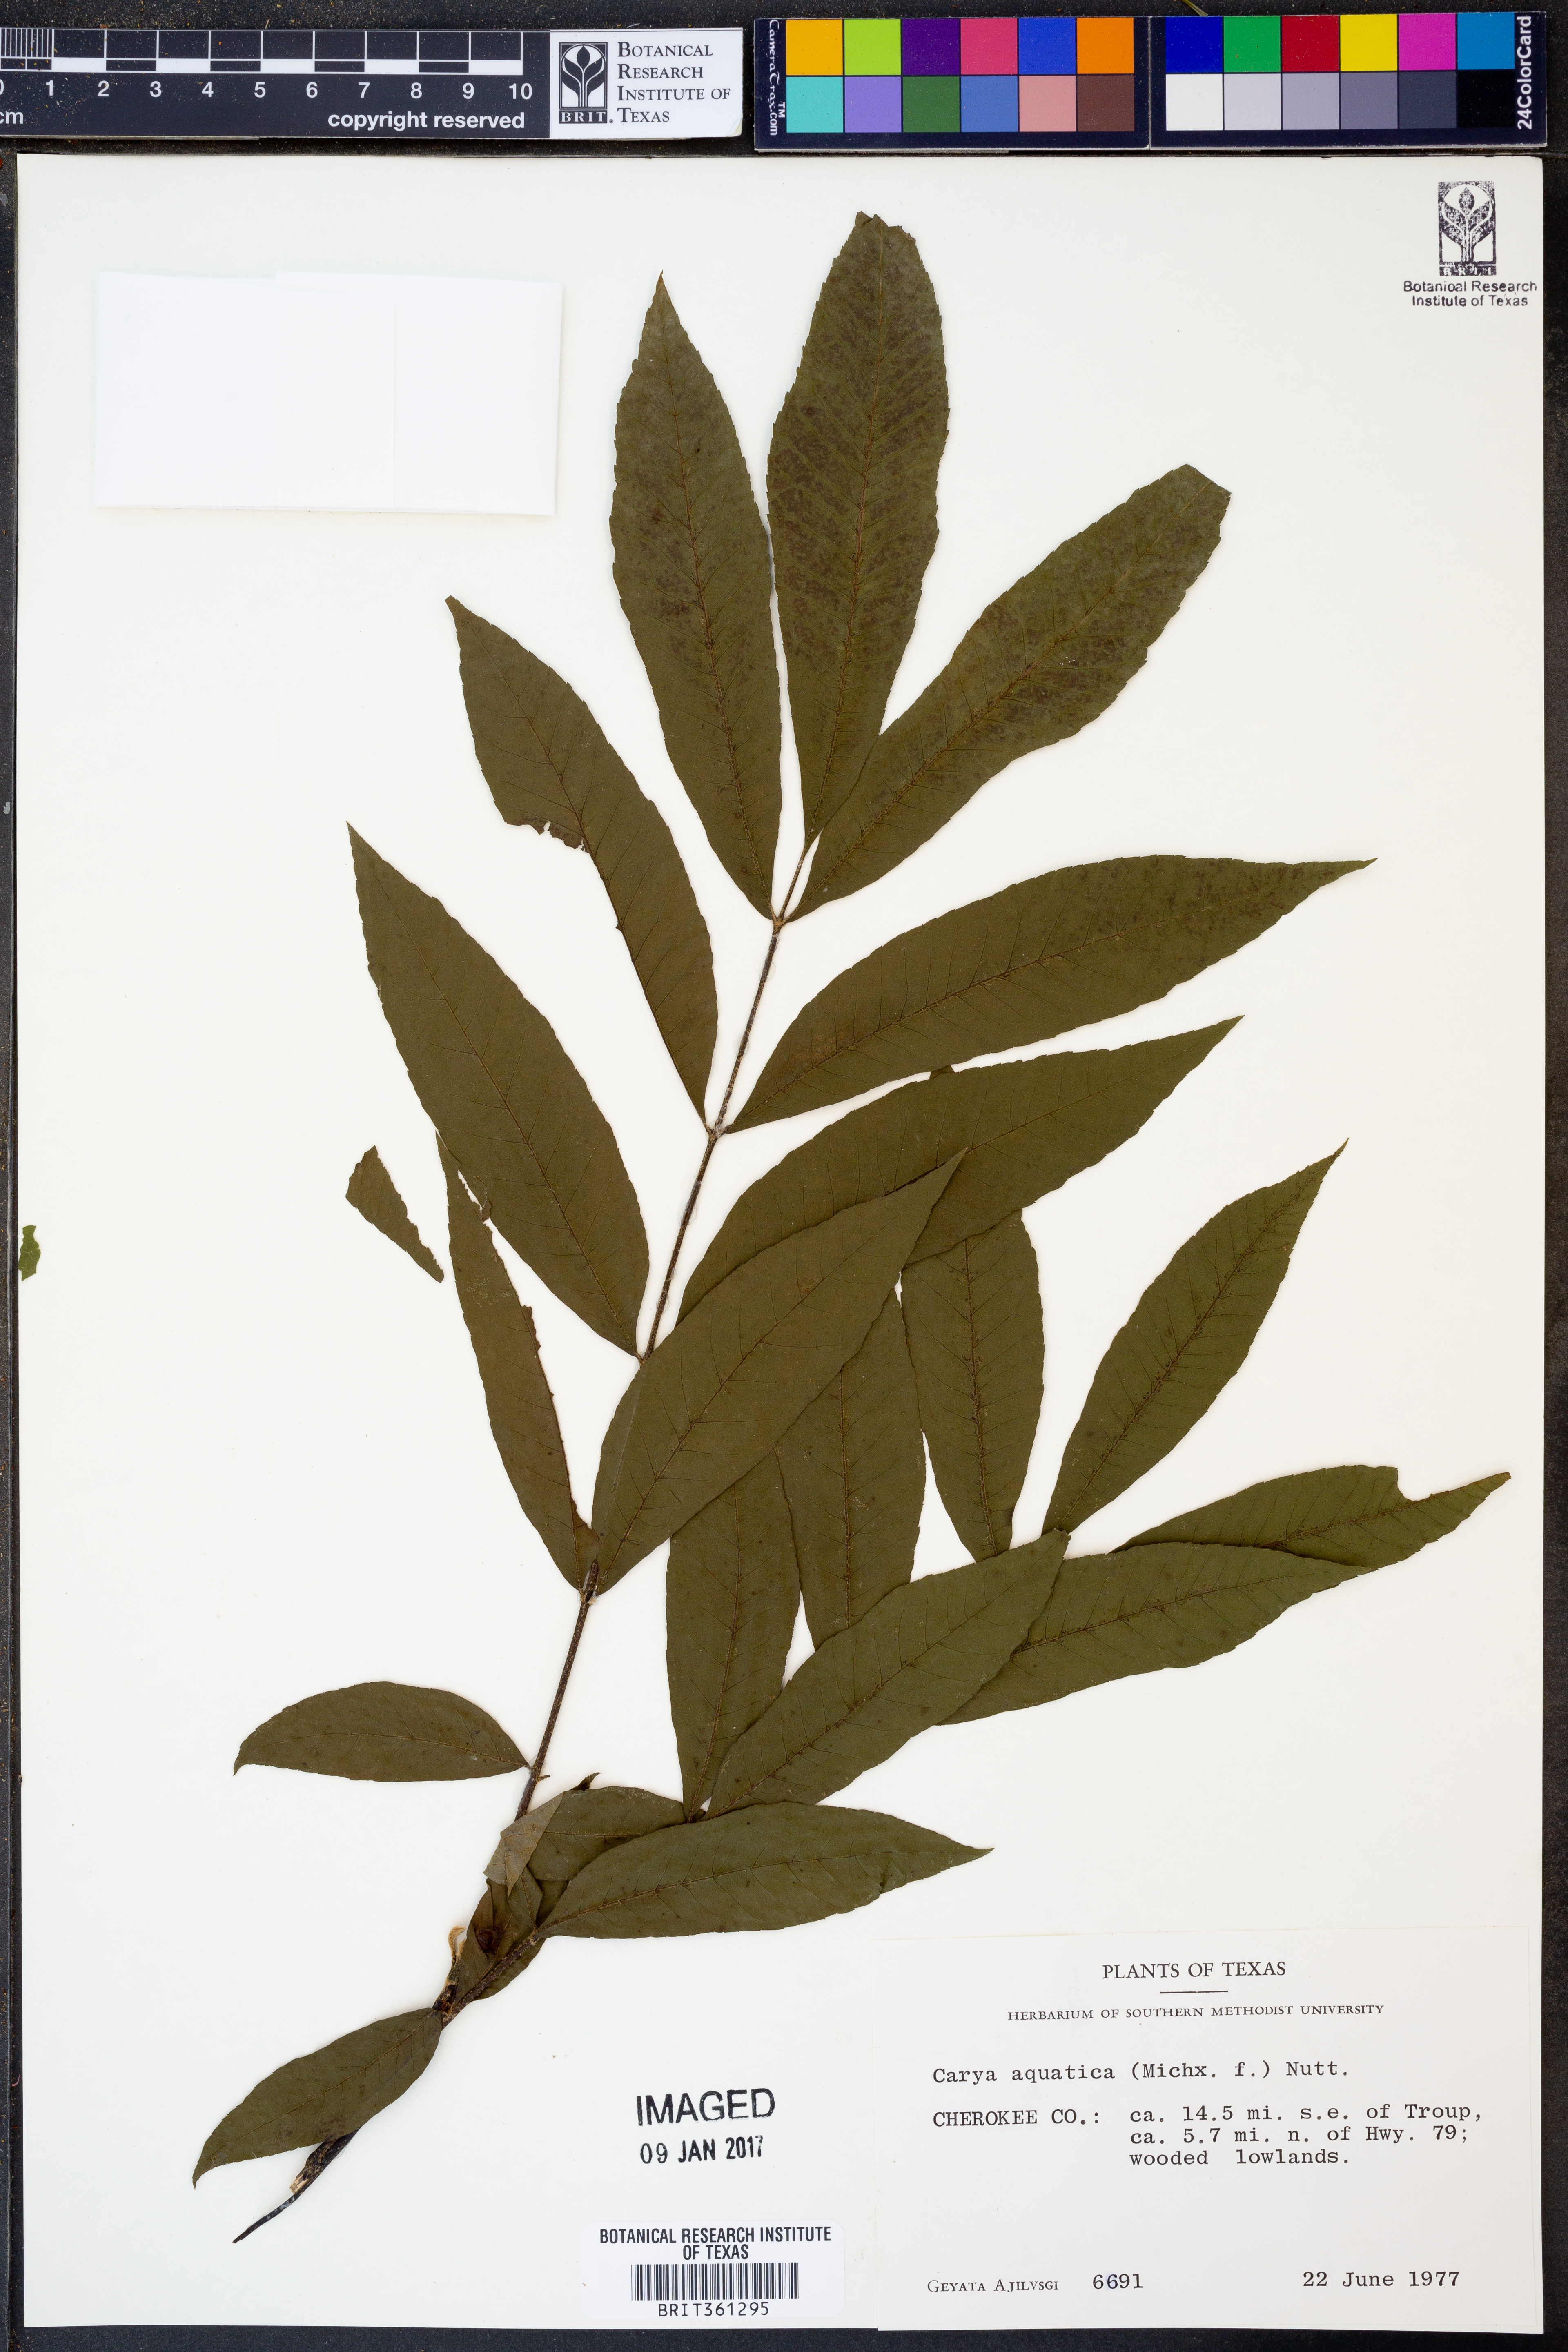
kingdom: Plantae
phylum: Tracheophyta
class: Magnoliopsida
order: Fagales
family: Juglandaceae
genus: Carya
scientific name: Carya aquatica
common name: Water hickory
